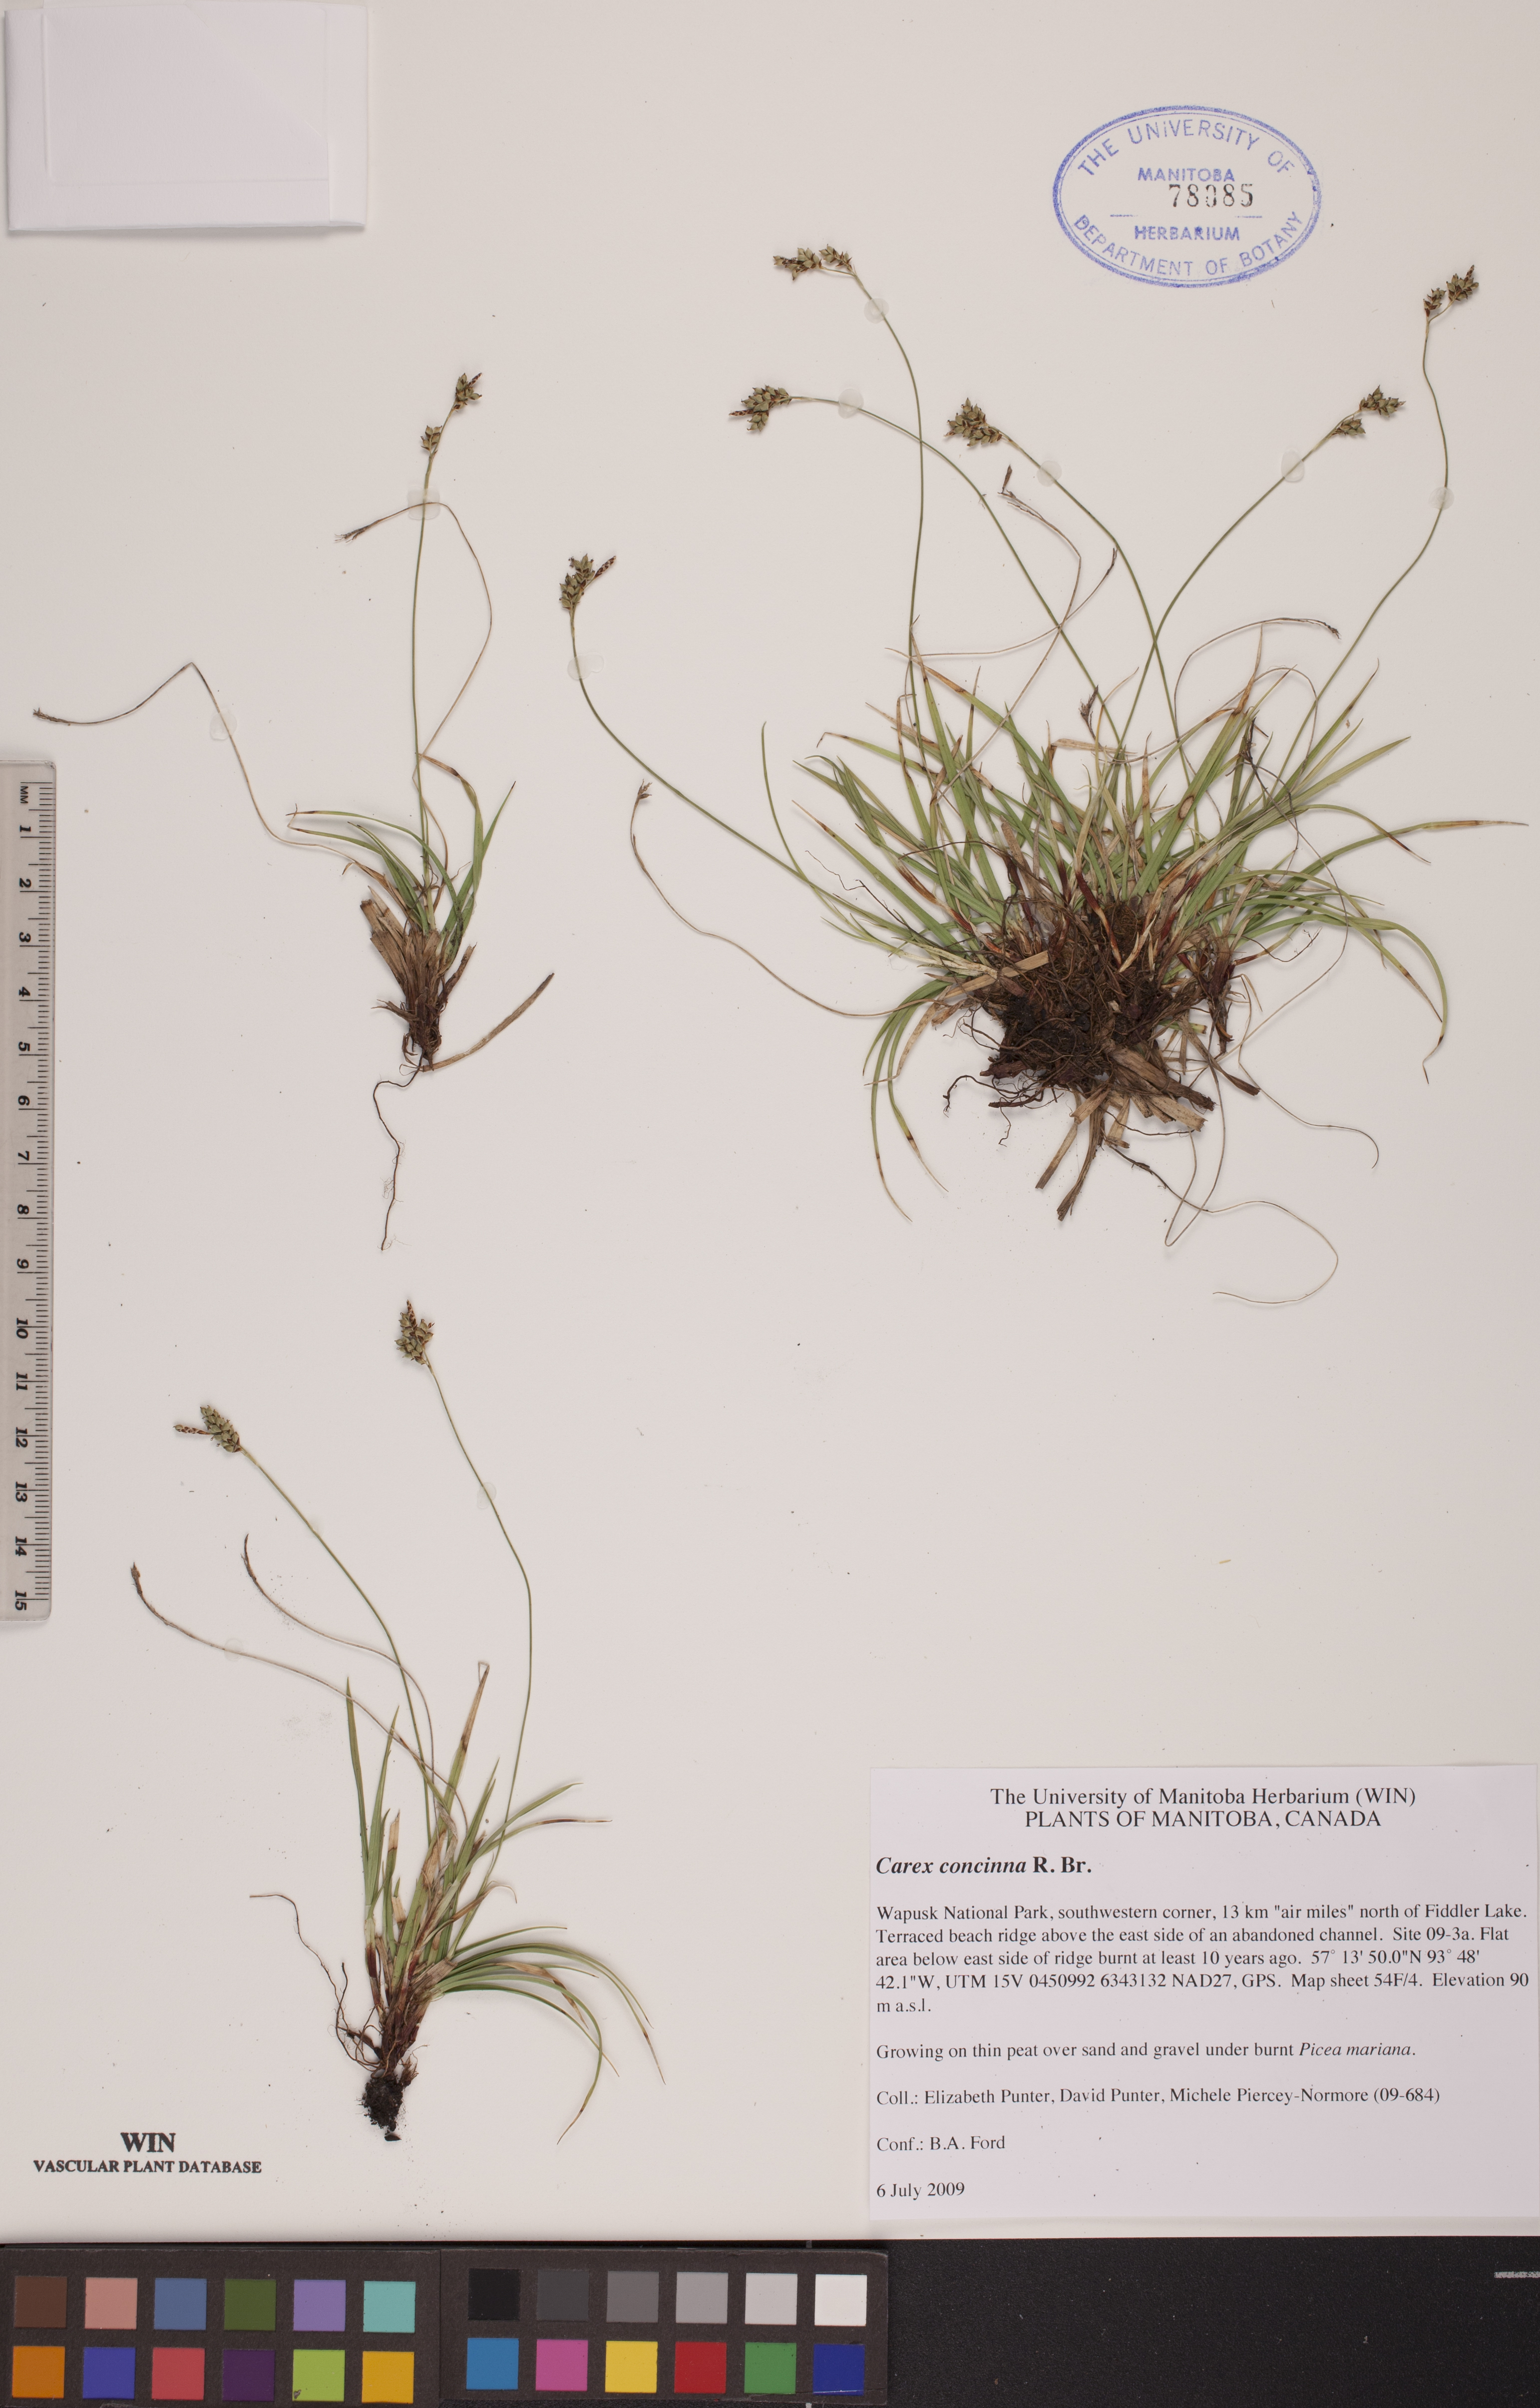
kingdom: Plantae
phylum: Tracheophyta
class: Liliopsida
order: Poales
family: Cyperaceae
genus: Carex
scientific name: Carex concinna
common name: Beautiful sedge
